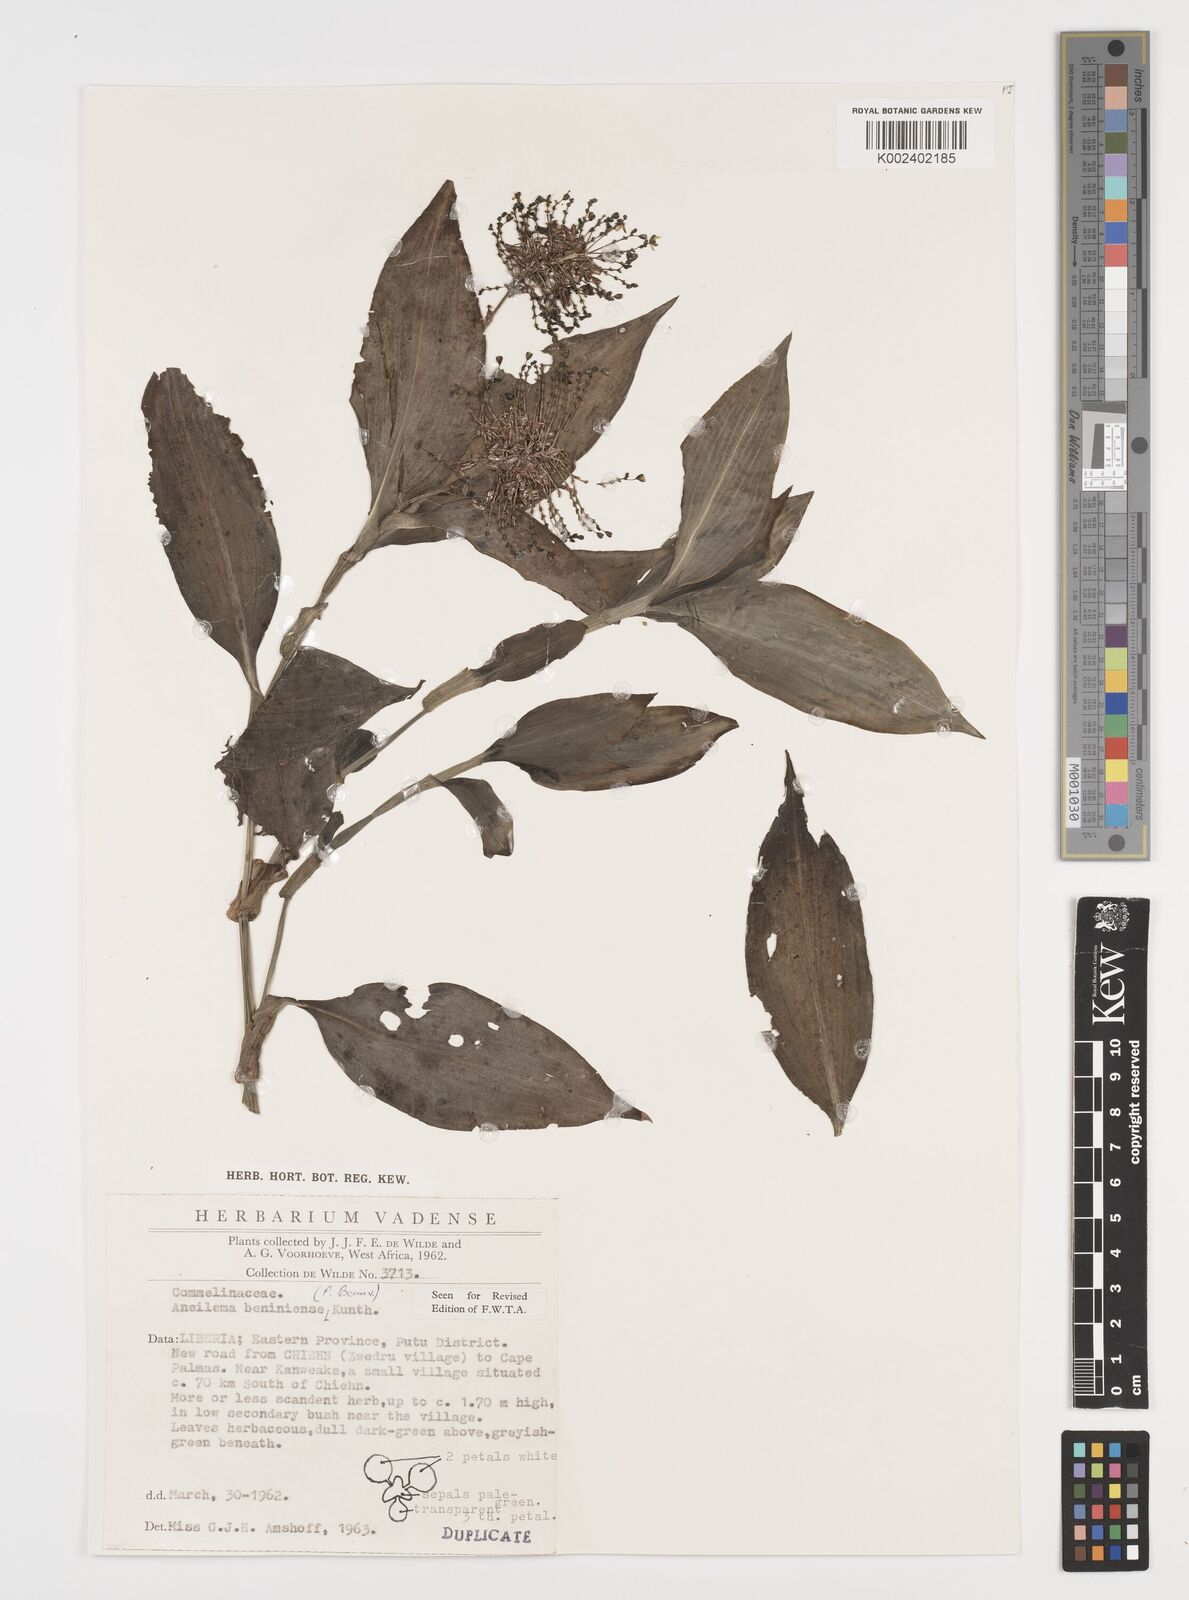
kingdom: Plantae
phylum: Tracheophyta
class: Liliopsida
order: Commelinales
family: Commelinaceae
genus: Aneilema
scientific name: Aneilema beniniense
